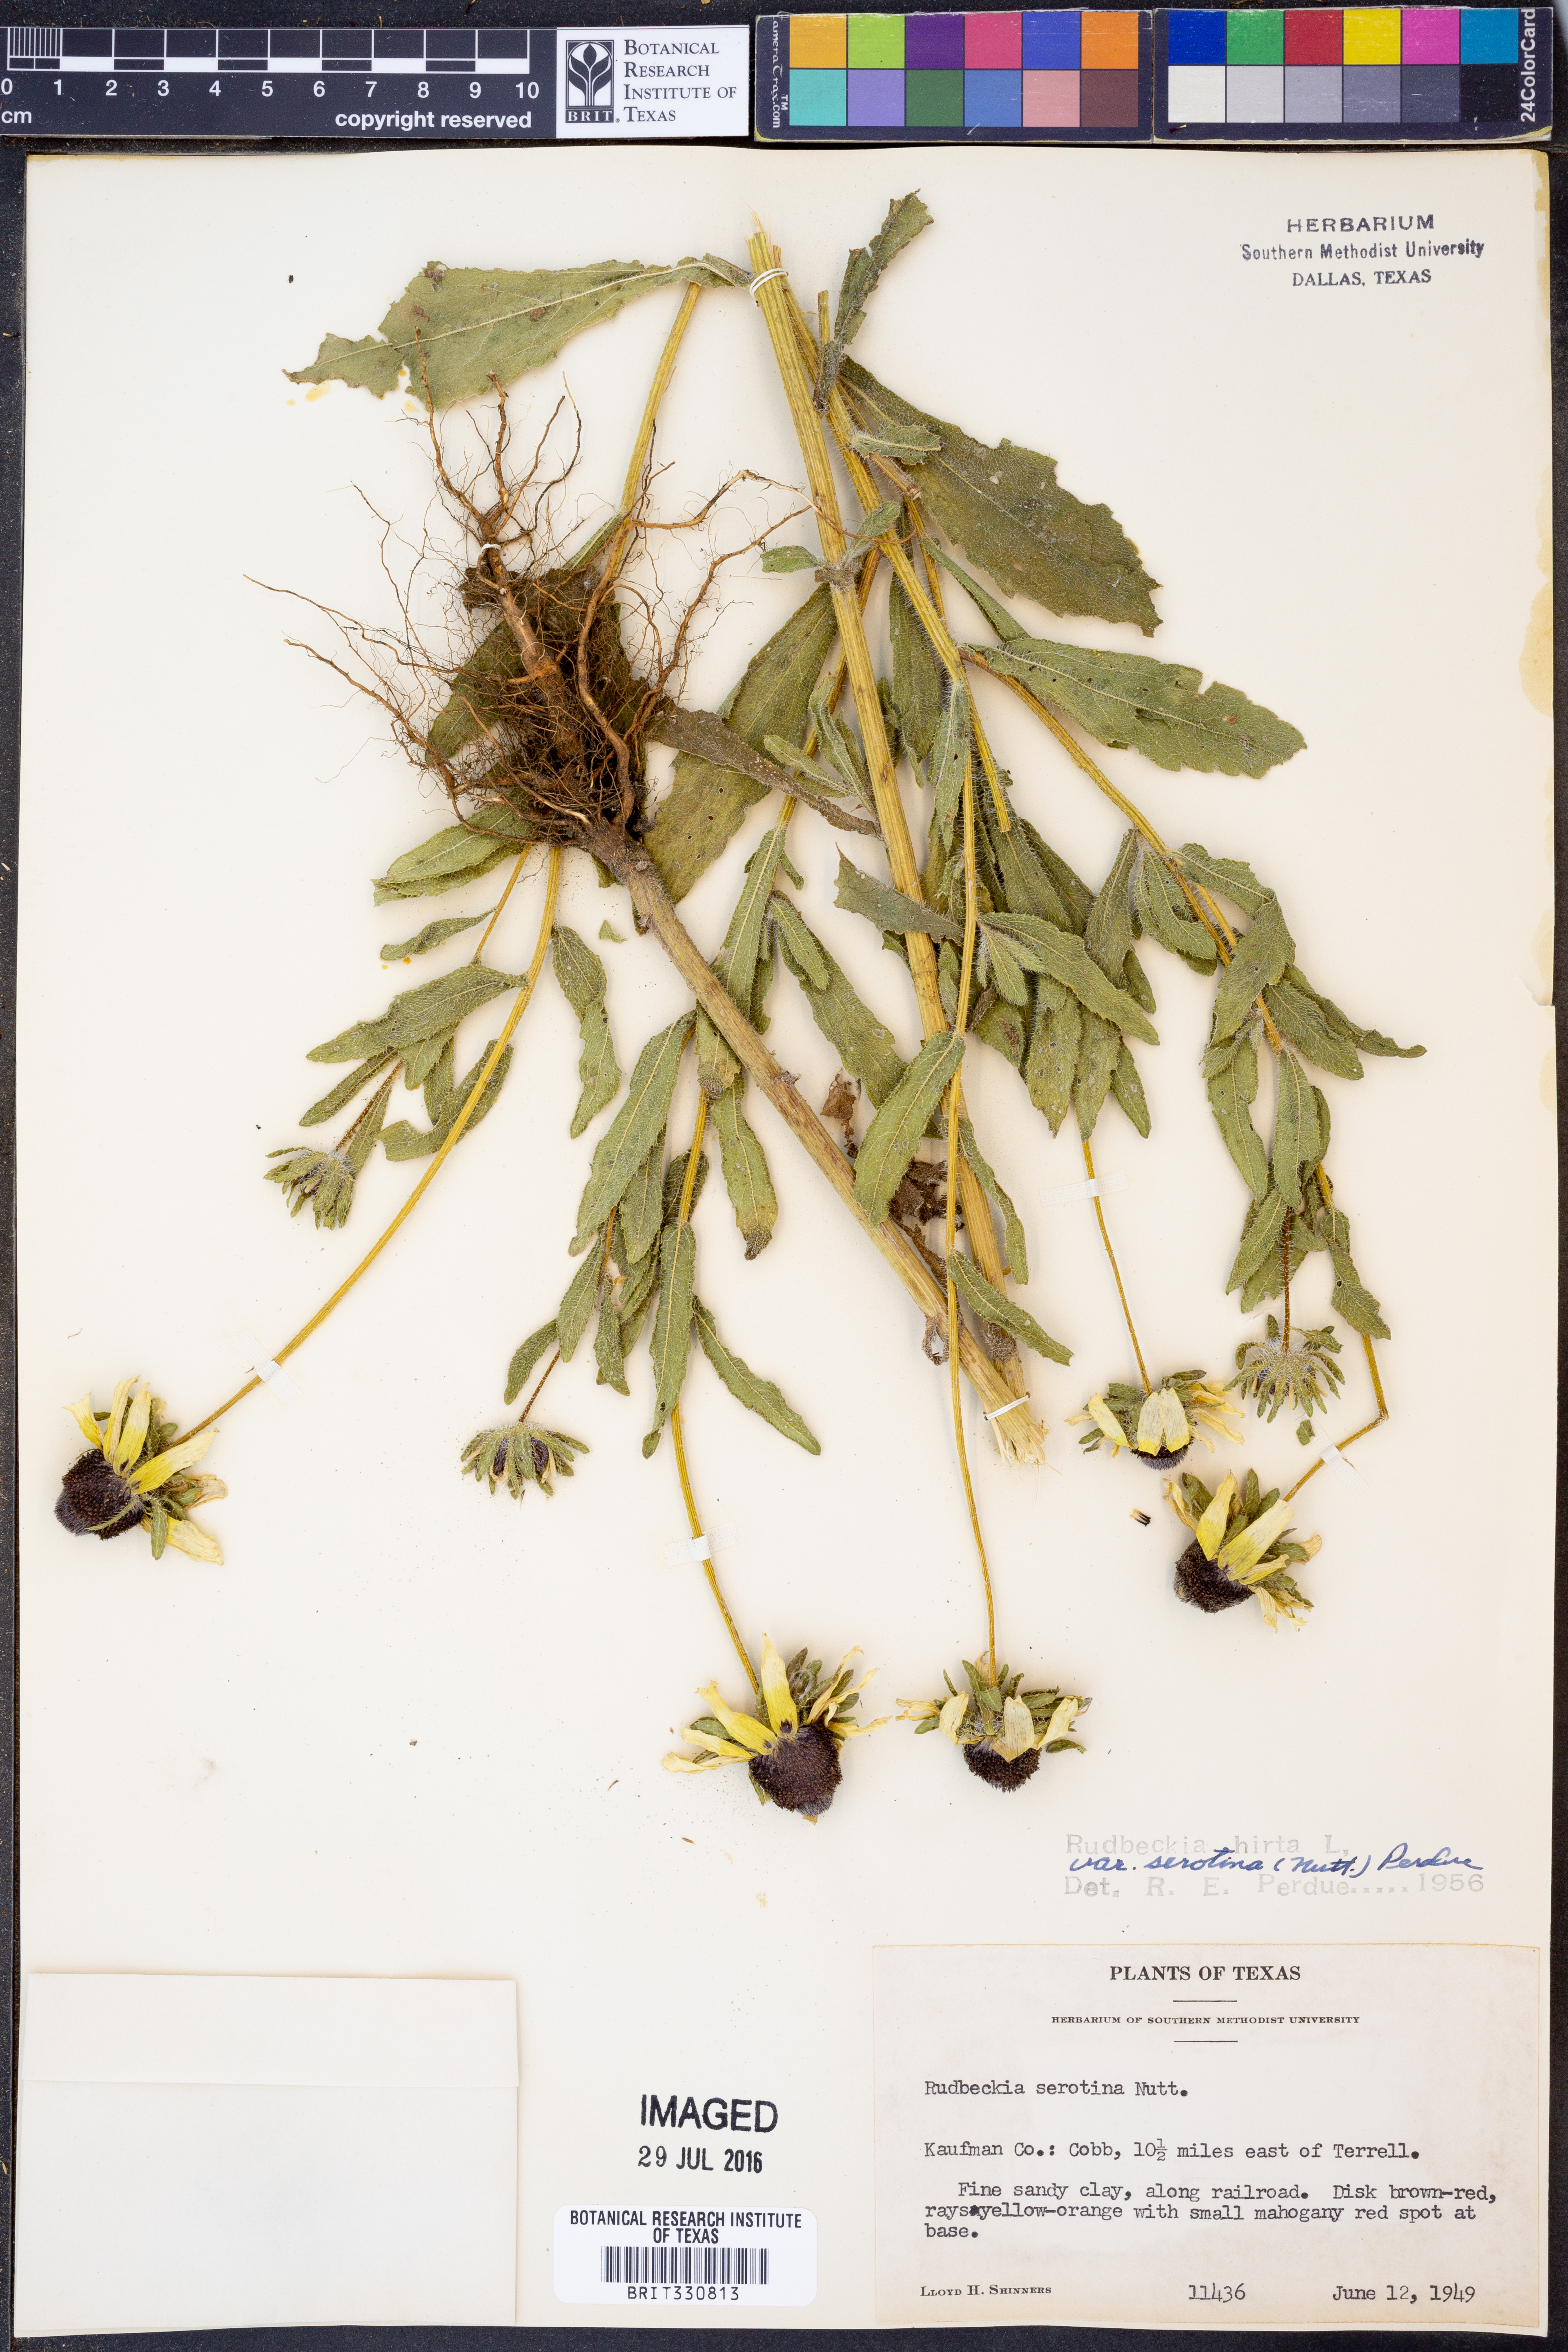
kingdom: Plantae
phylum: Tracheophyta
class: Magnoliopsida
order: Asterales
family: Asteraceae
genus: Rudbeckia
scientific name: Rudbeckia hirta
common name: Black-eyed-susan
